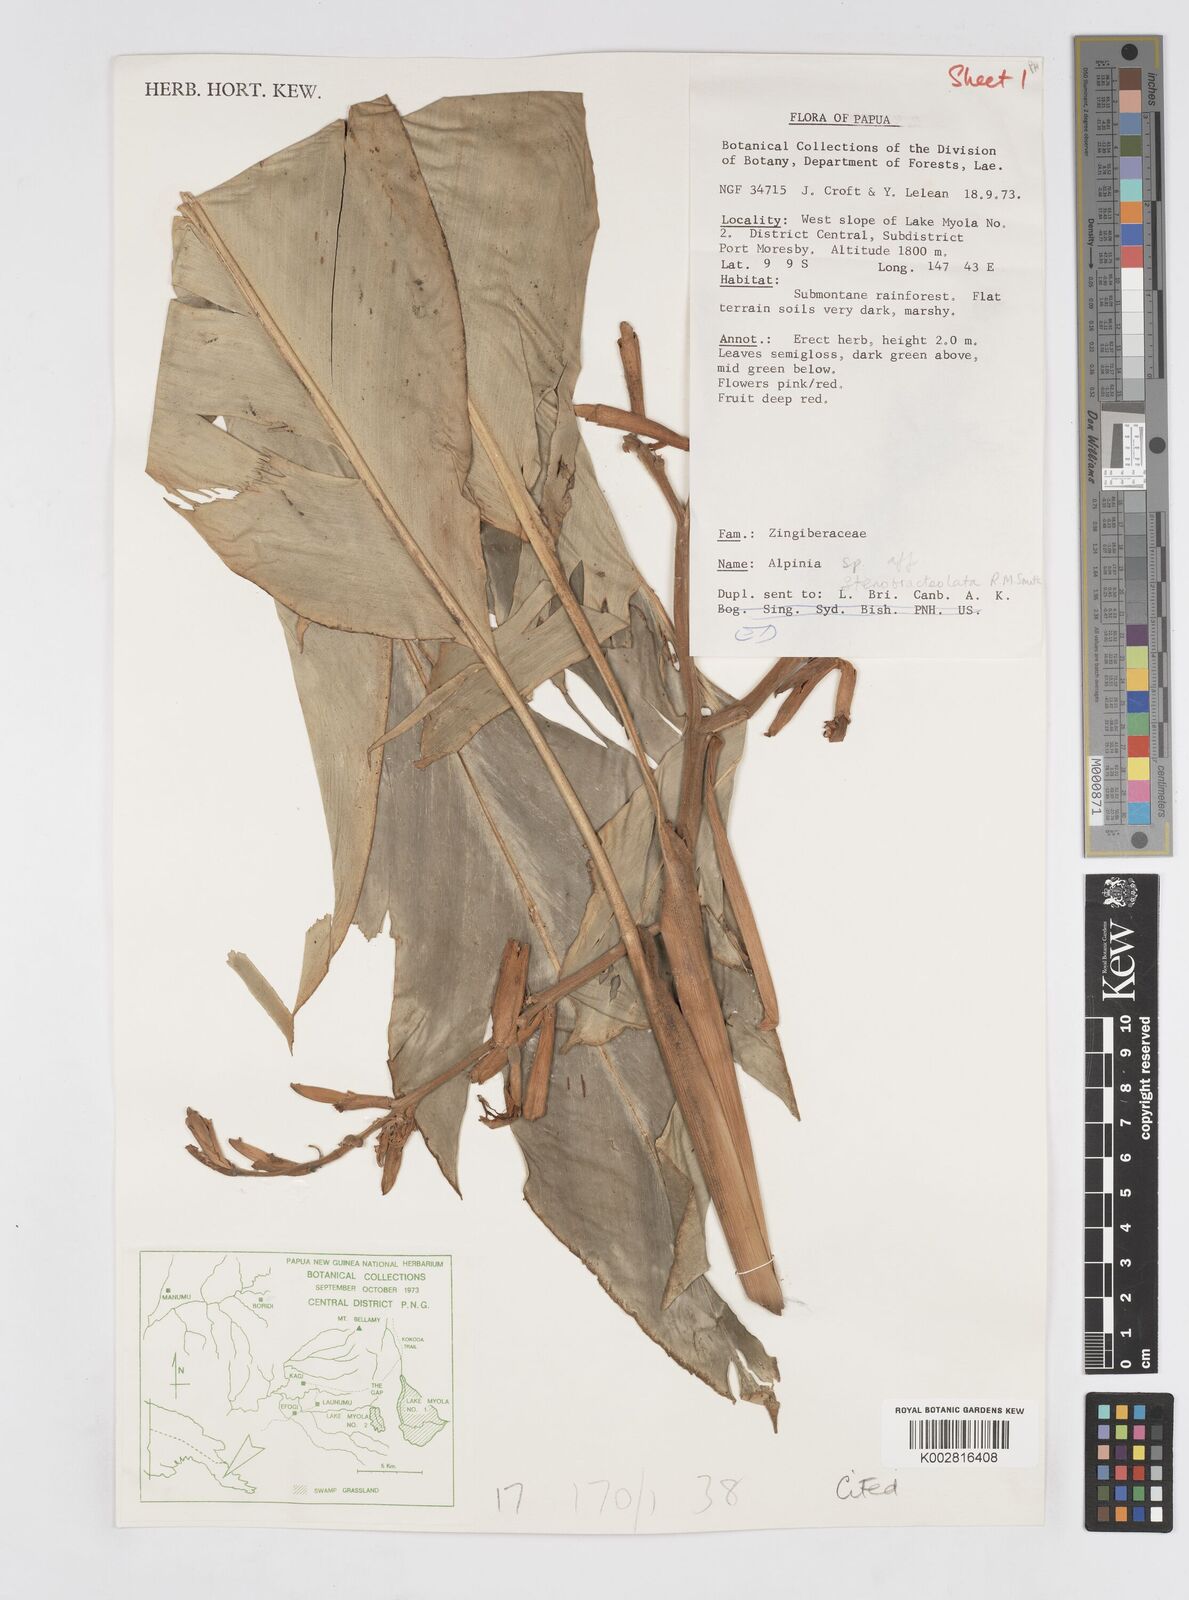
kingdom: Plantae
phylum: Tracheophyta
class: Liliopsida
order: Zingiberales
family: Zingiberaceae
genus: Alpinia
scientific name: Alpinia stenobracteolata
